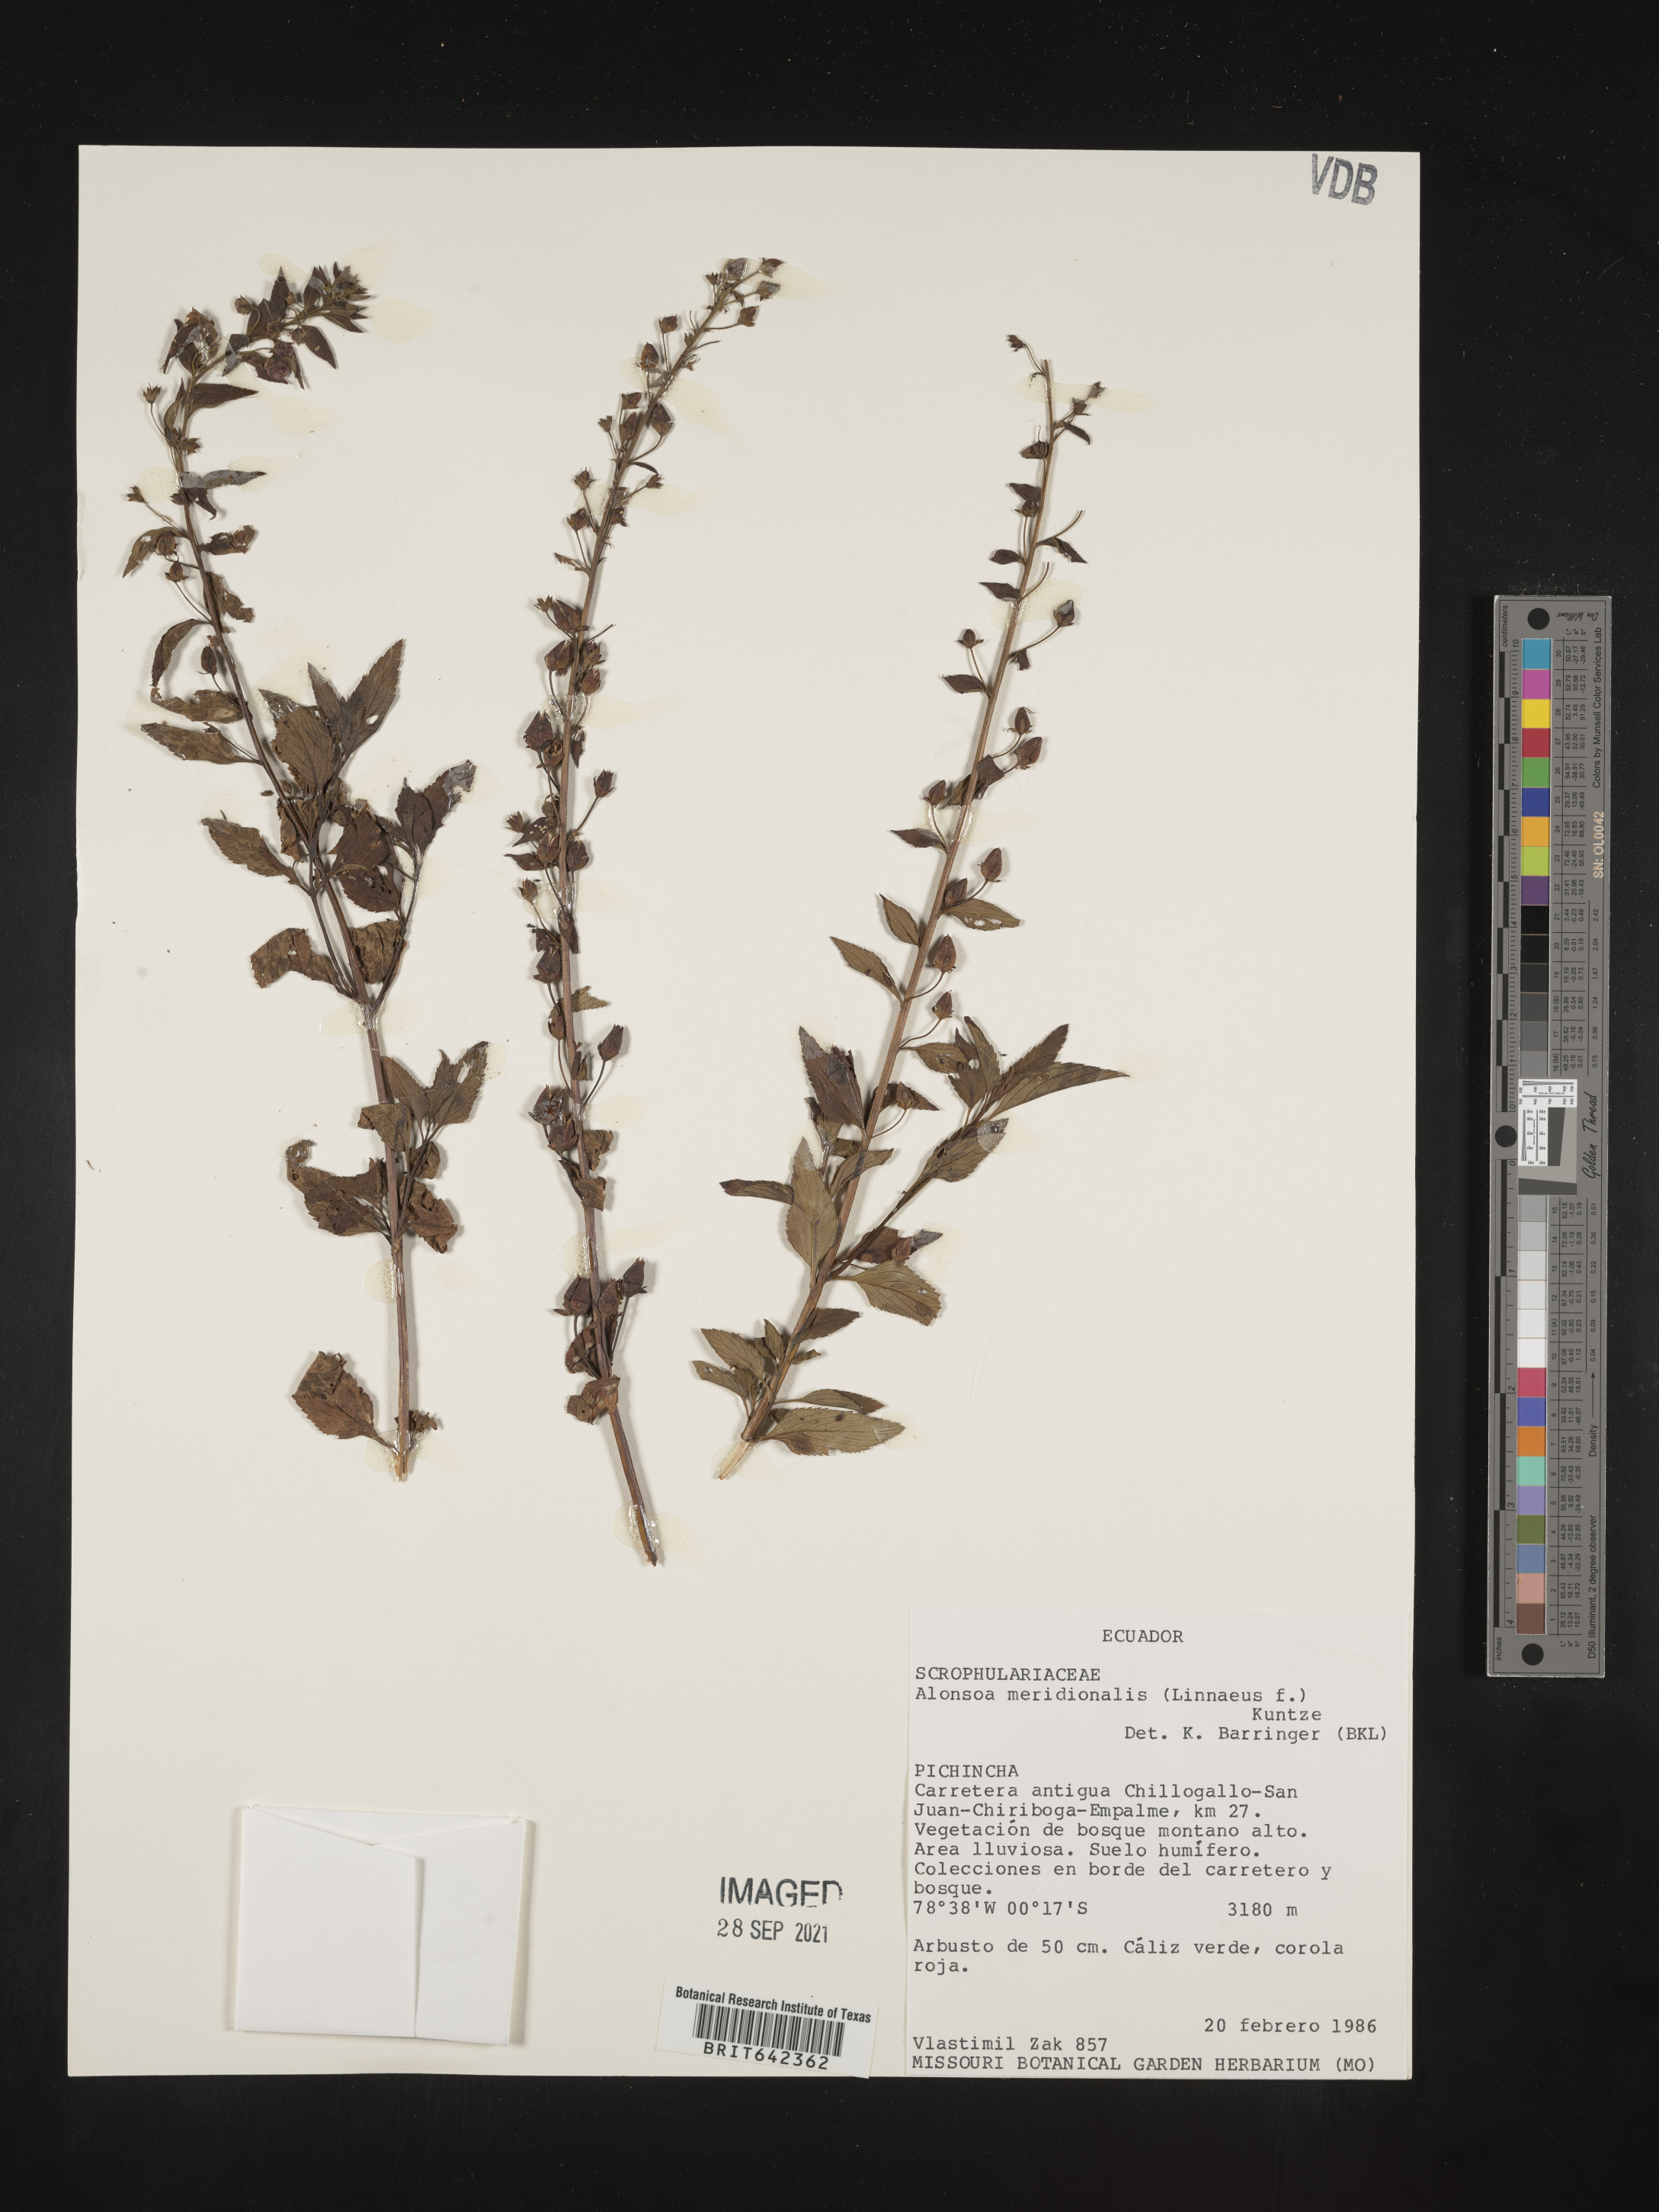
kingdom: Plantae
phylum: Tracheophyta
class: Magnoliopsida
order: Lamiales
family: Scrophulariaceae
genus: Alonsoa
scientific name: Alonsoa
